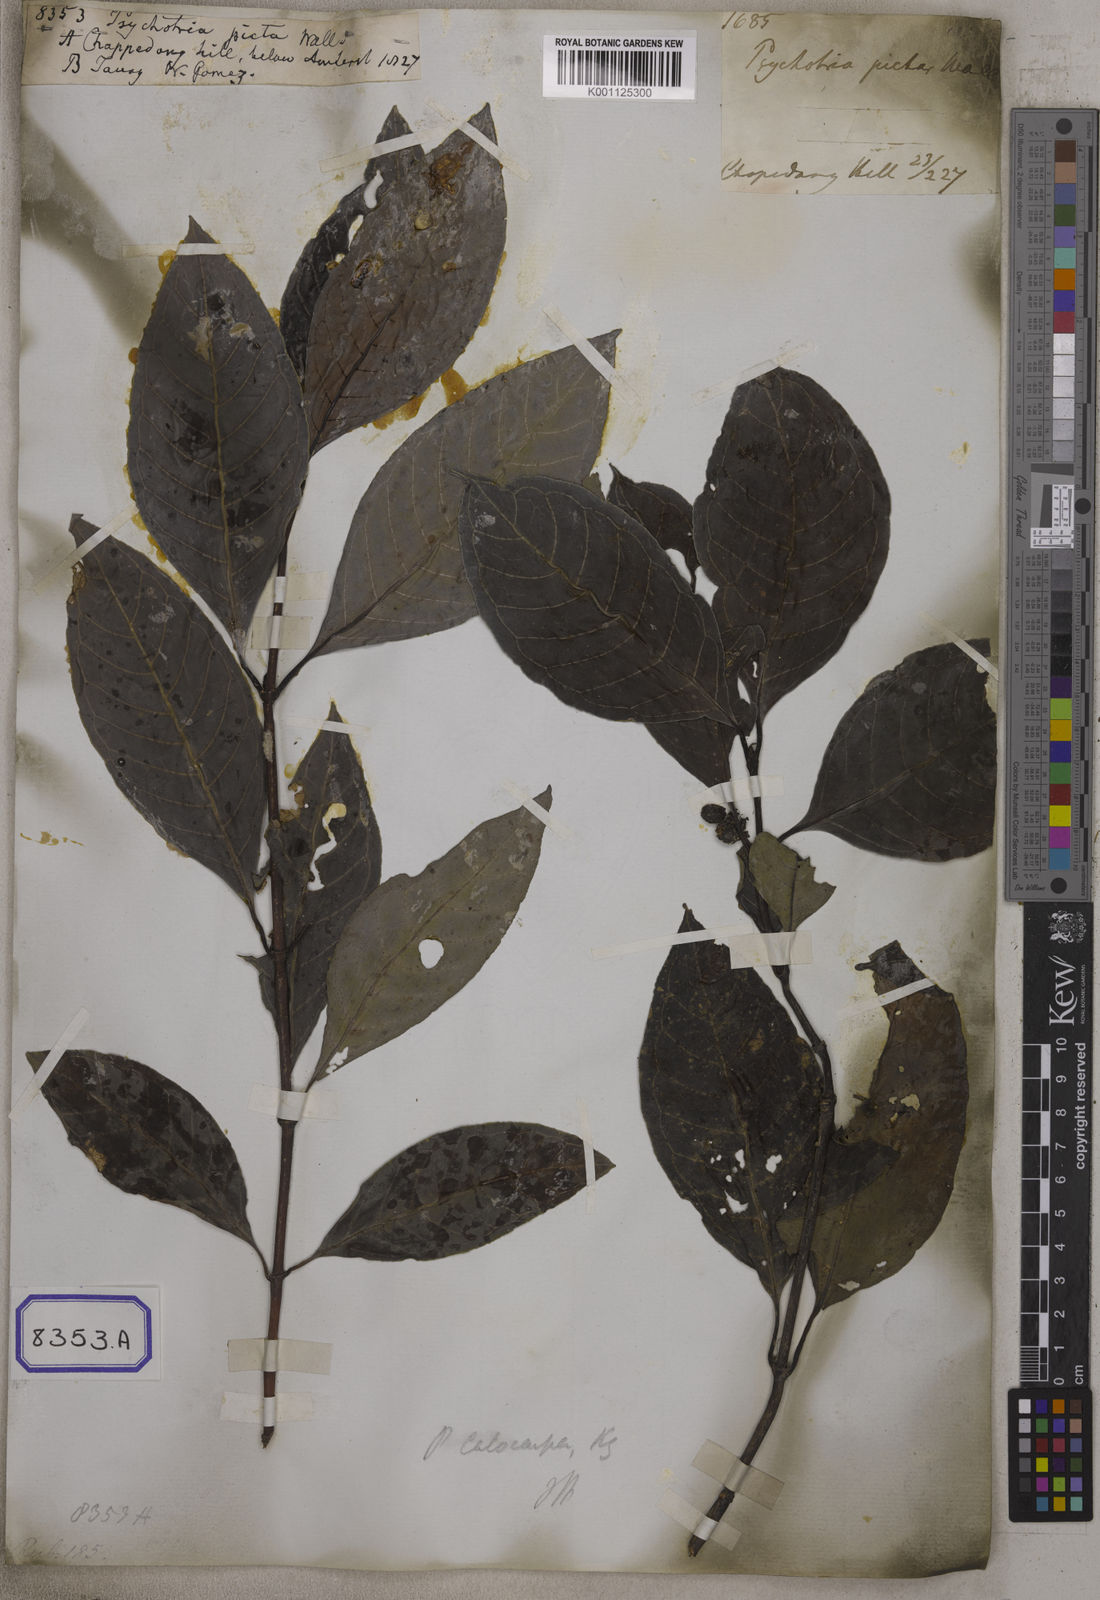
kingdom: Plantae
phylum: Tracheophyta
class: Magnoliopsida
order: Gentianales
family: Rubiaceae
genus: Psychotria
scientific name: Psychotria lanceolaria
